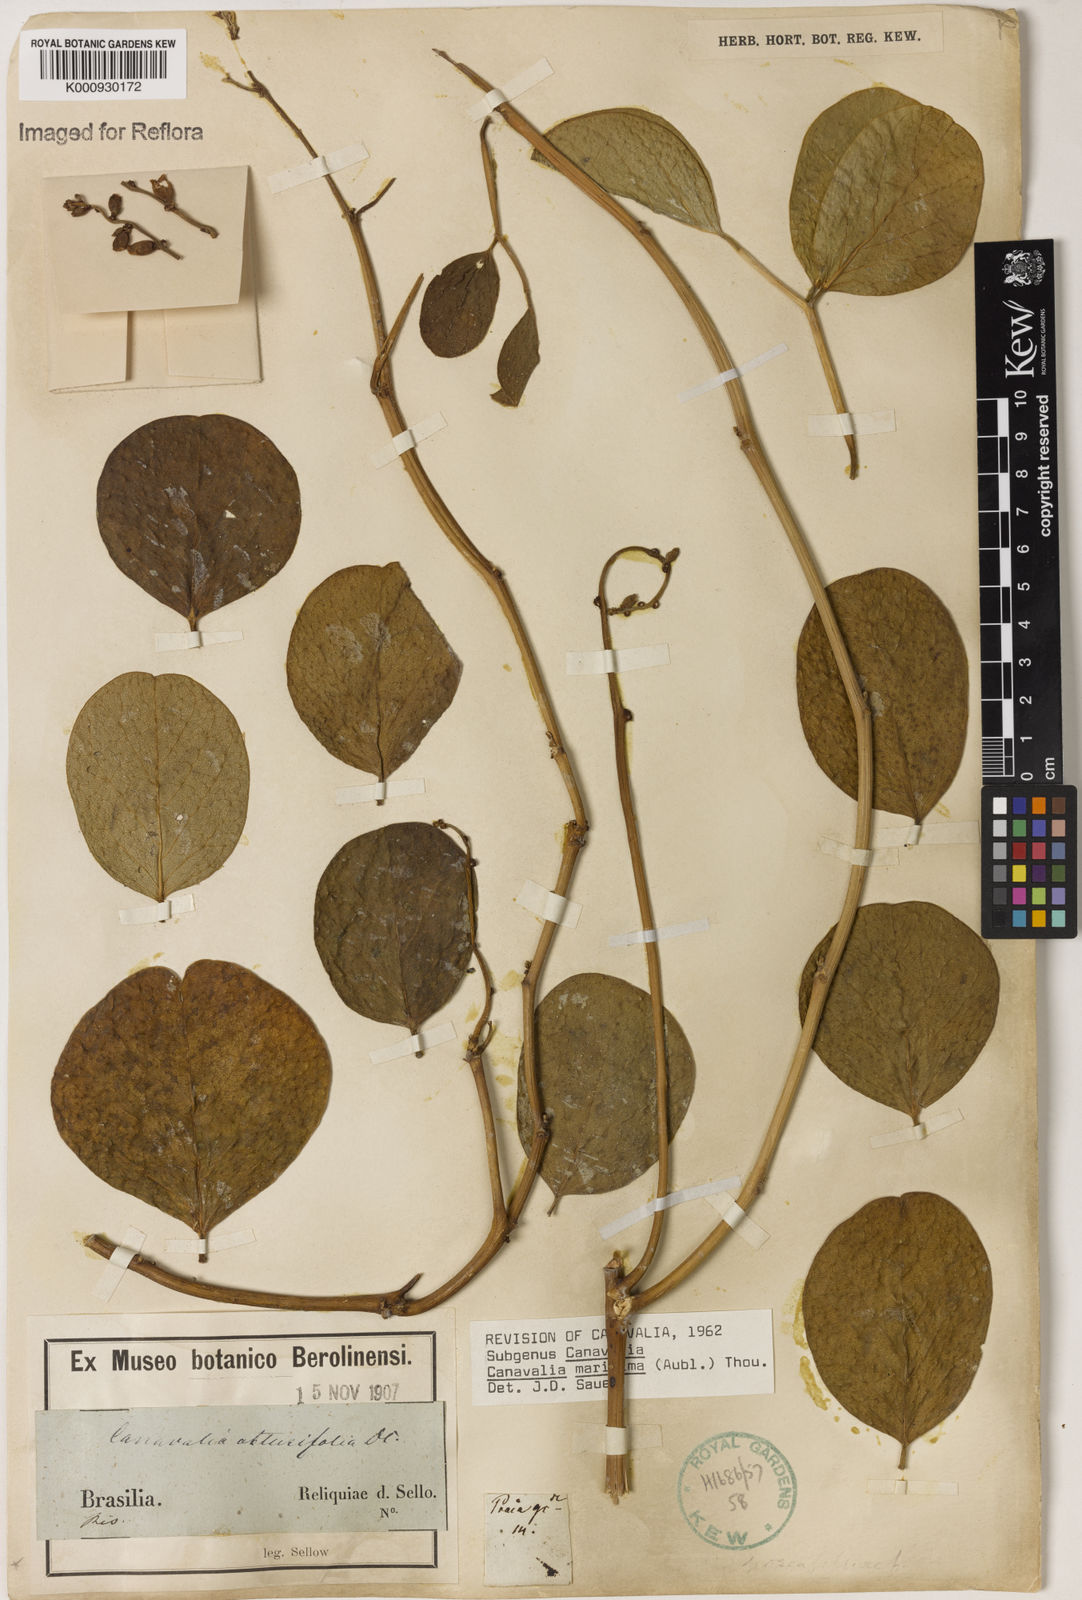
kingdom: Plantae
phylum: Tracheophyta
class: Magnoliopsida
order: Fabales
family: Fabaceae
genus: Canavalia
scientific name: Canavalia rosea
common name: Beach-bean
